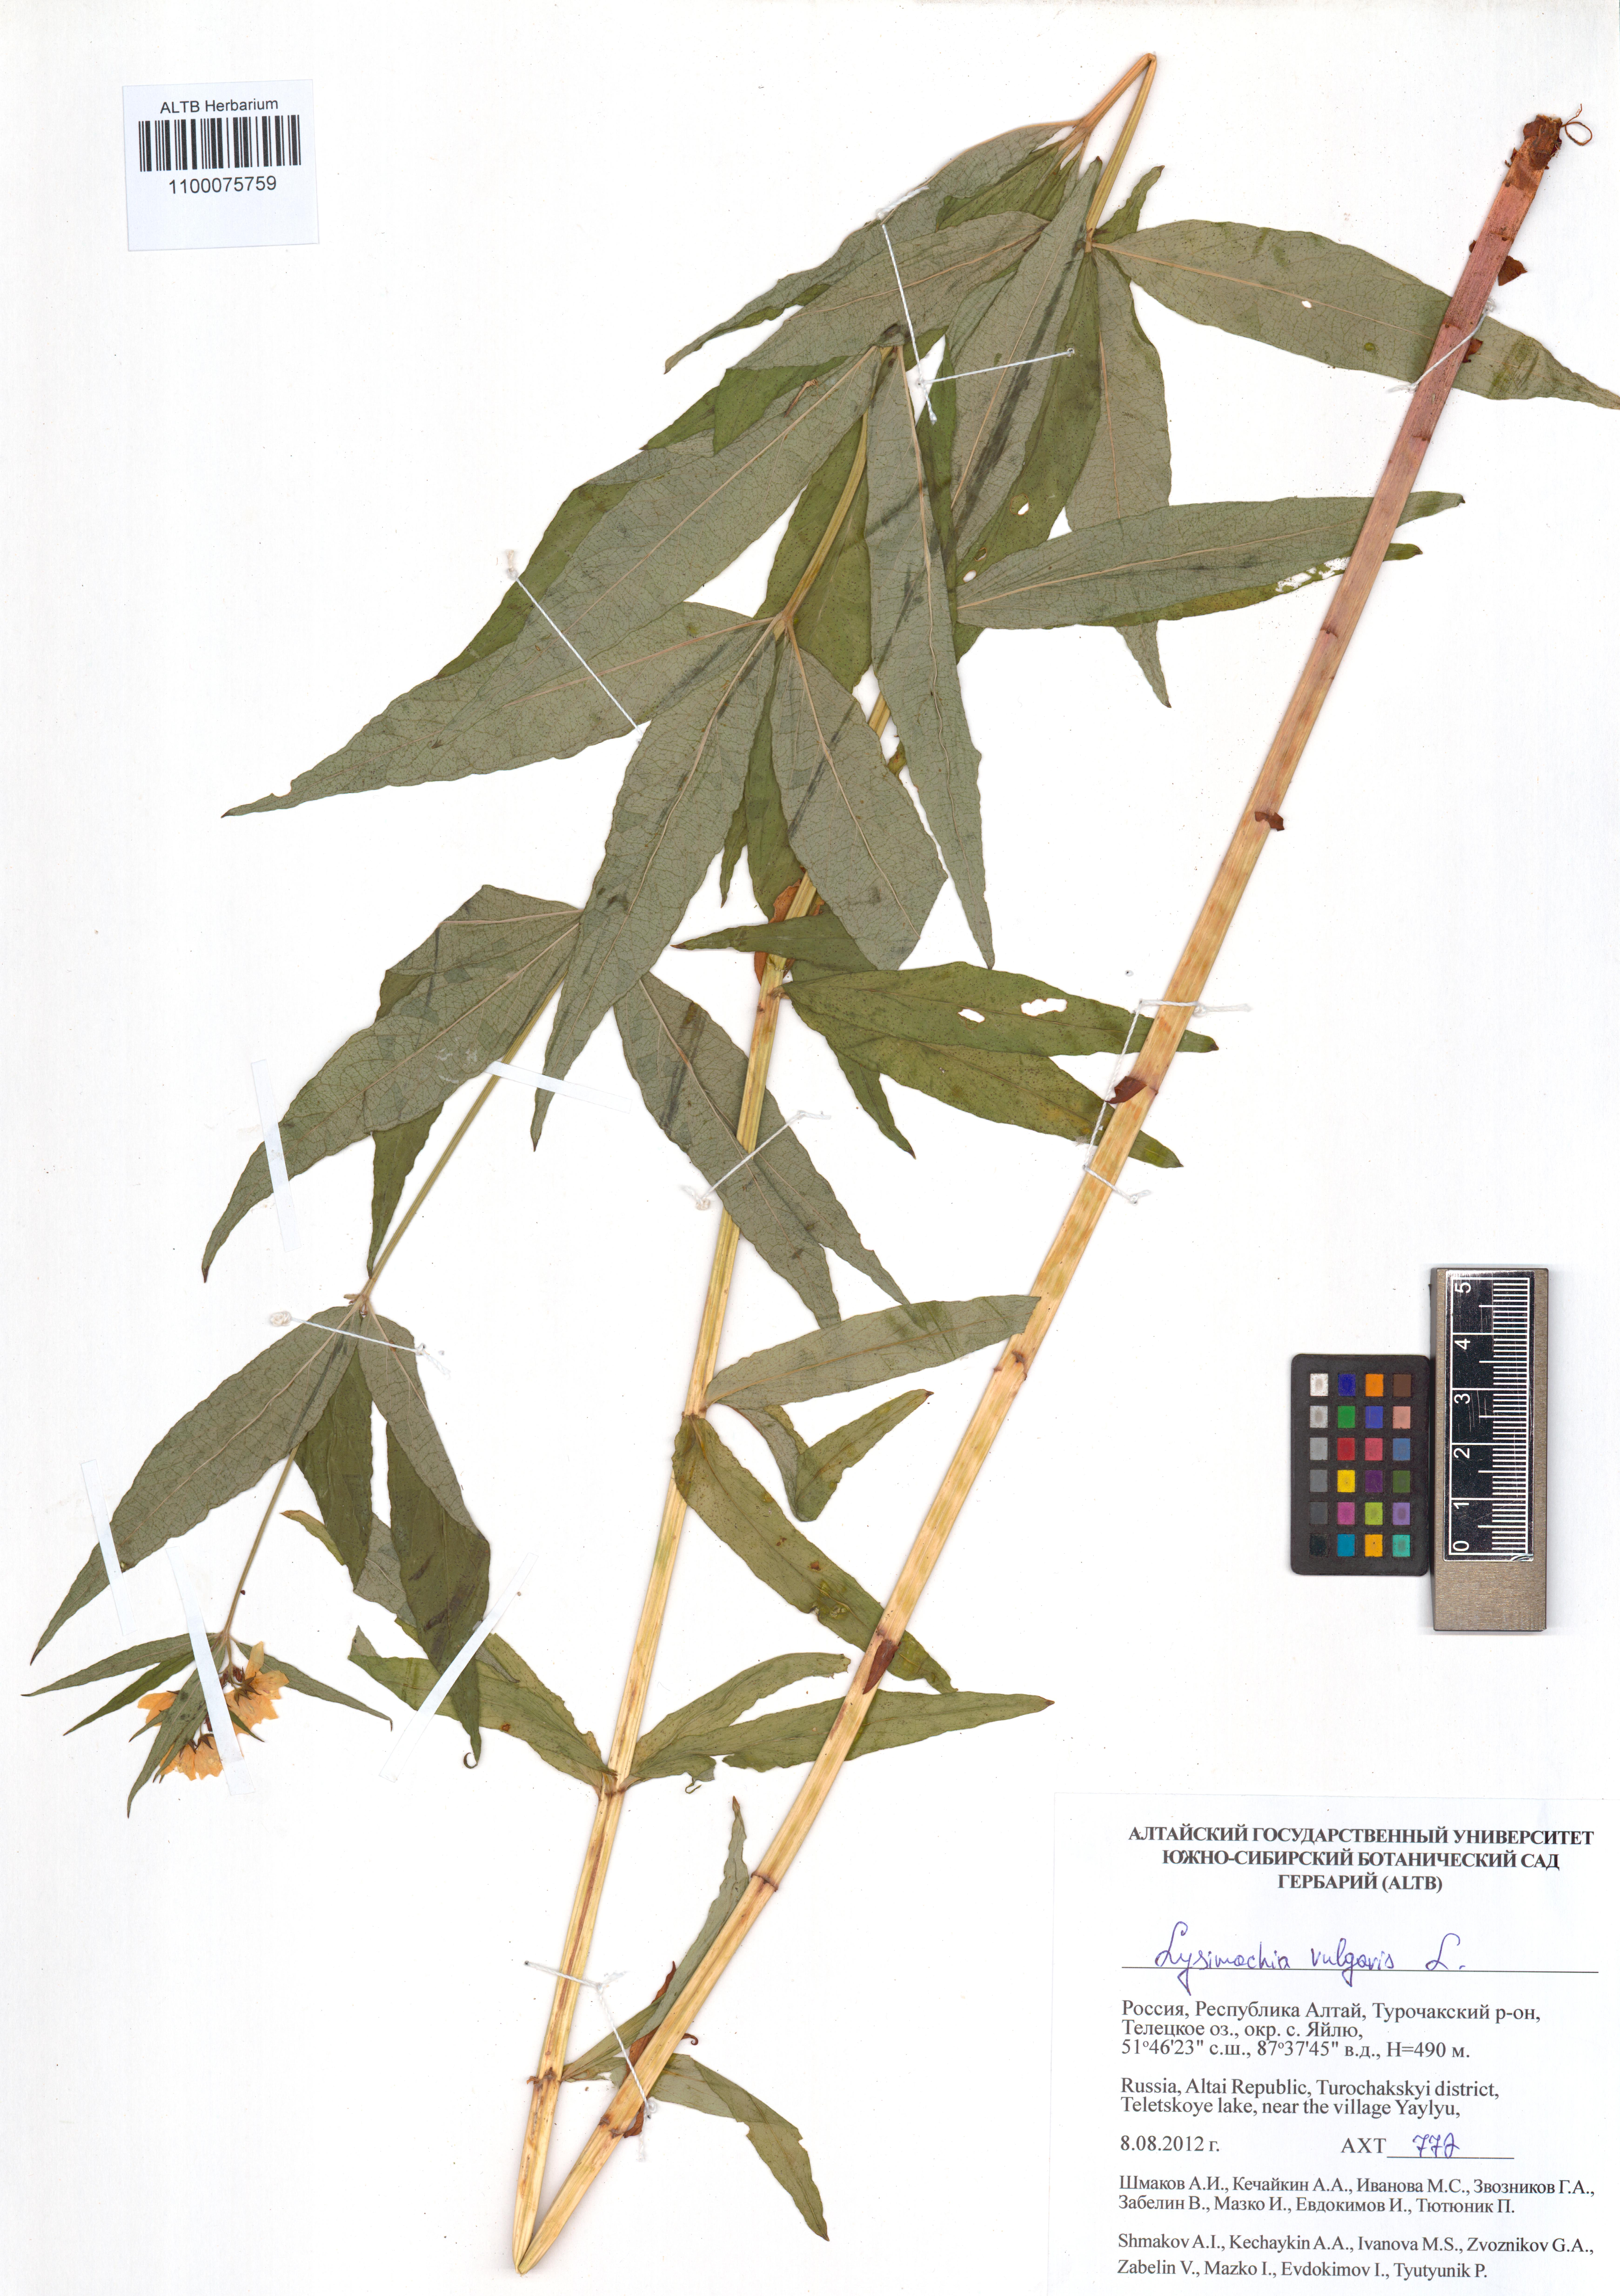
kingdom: Plantae
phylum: Tracheophyta
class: Magnoliopsida
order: Ericales
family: Primulaceae
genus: Lysimachia
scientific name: Lysimachia vulgaris
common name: Yellow loosestrife
